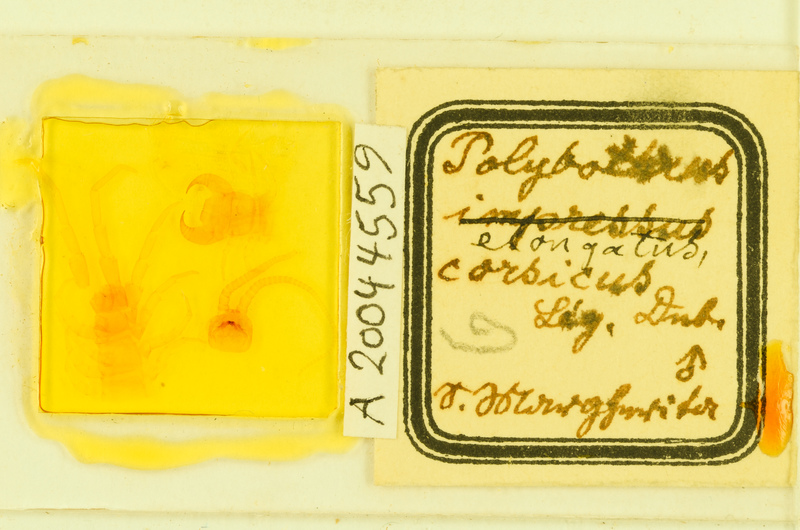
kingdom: Animalia
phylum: Arthropoda
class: Chilopoda
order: Lithobiomorpha
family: Lithobiidae
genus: Polybothrus
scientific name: Polybothrus
